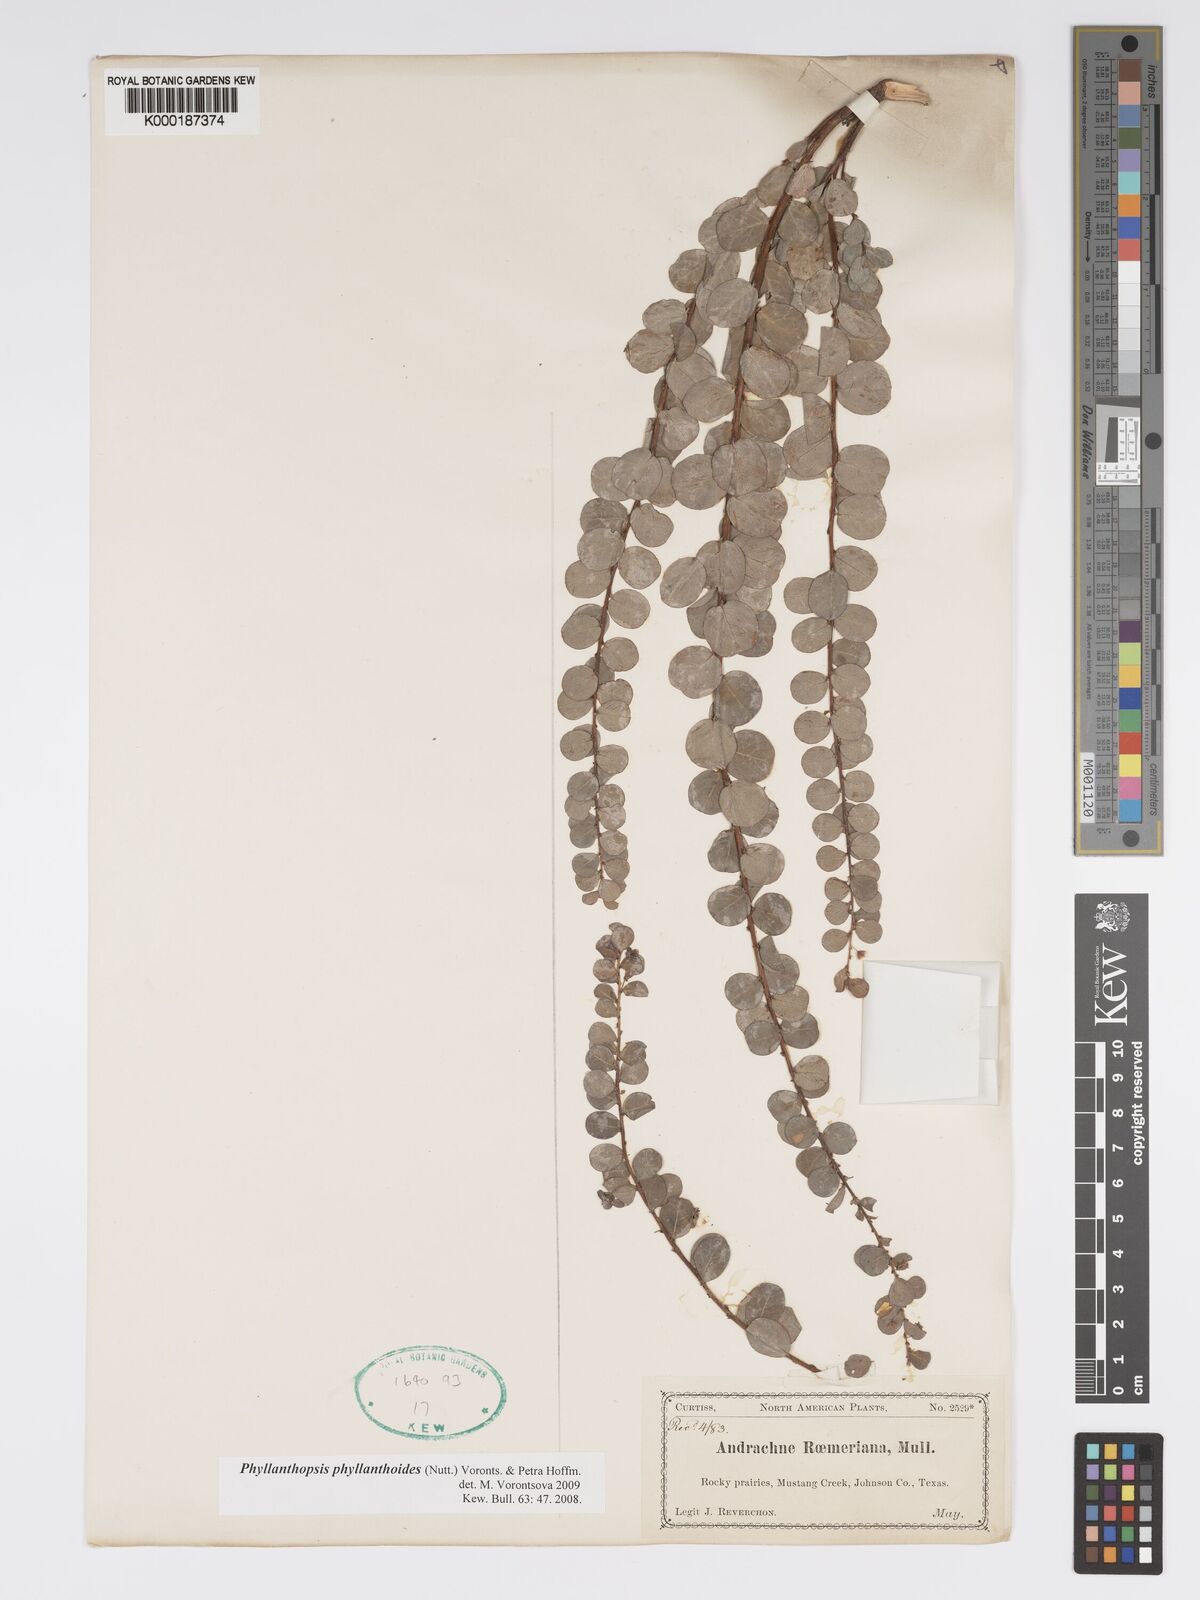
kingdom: Plantae
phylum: Tracheophyta
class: Magnoliopsida
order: Malpighiales
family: Phyllanthaceae
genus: Andrachne
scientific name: Andrachne
